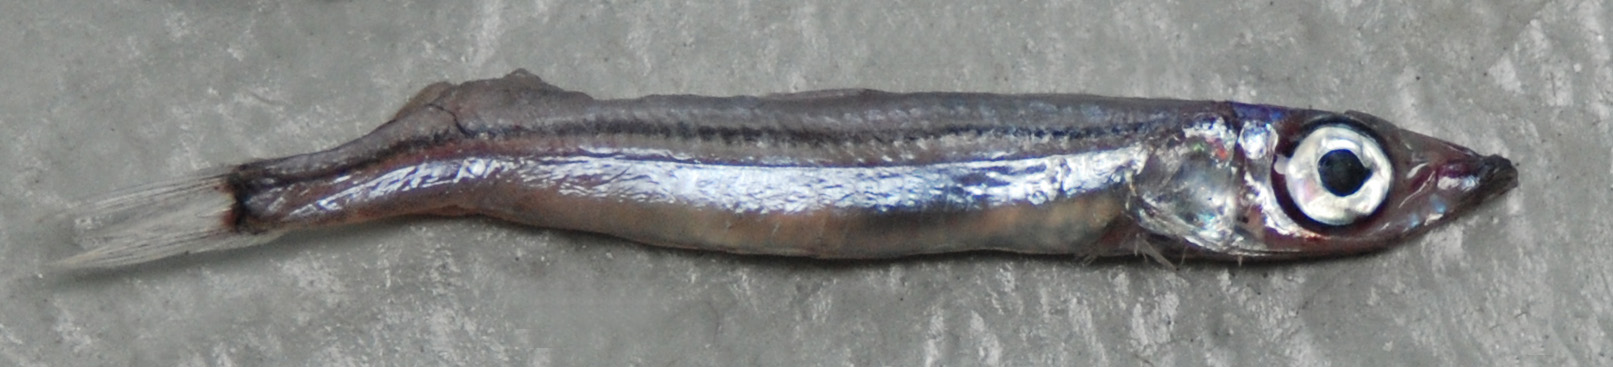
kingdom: Animalia
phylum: Chordata
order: Aulopiformes
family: Chlorophthalmidae
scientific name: Chlorophthalmidae
